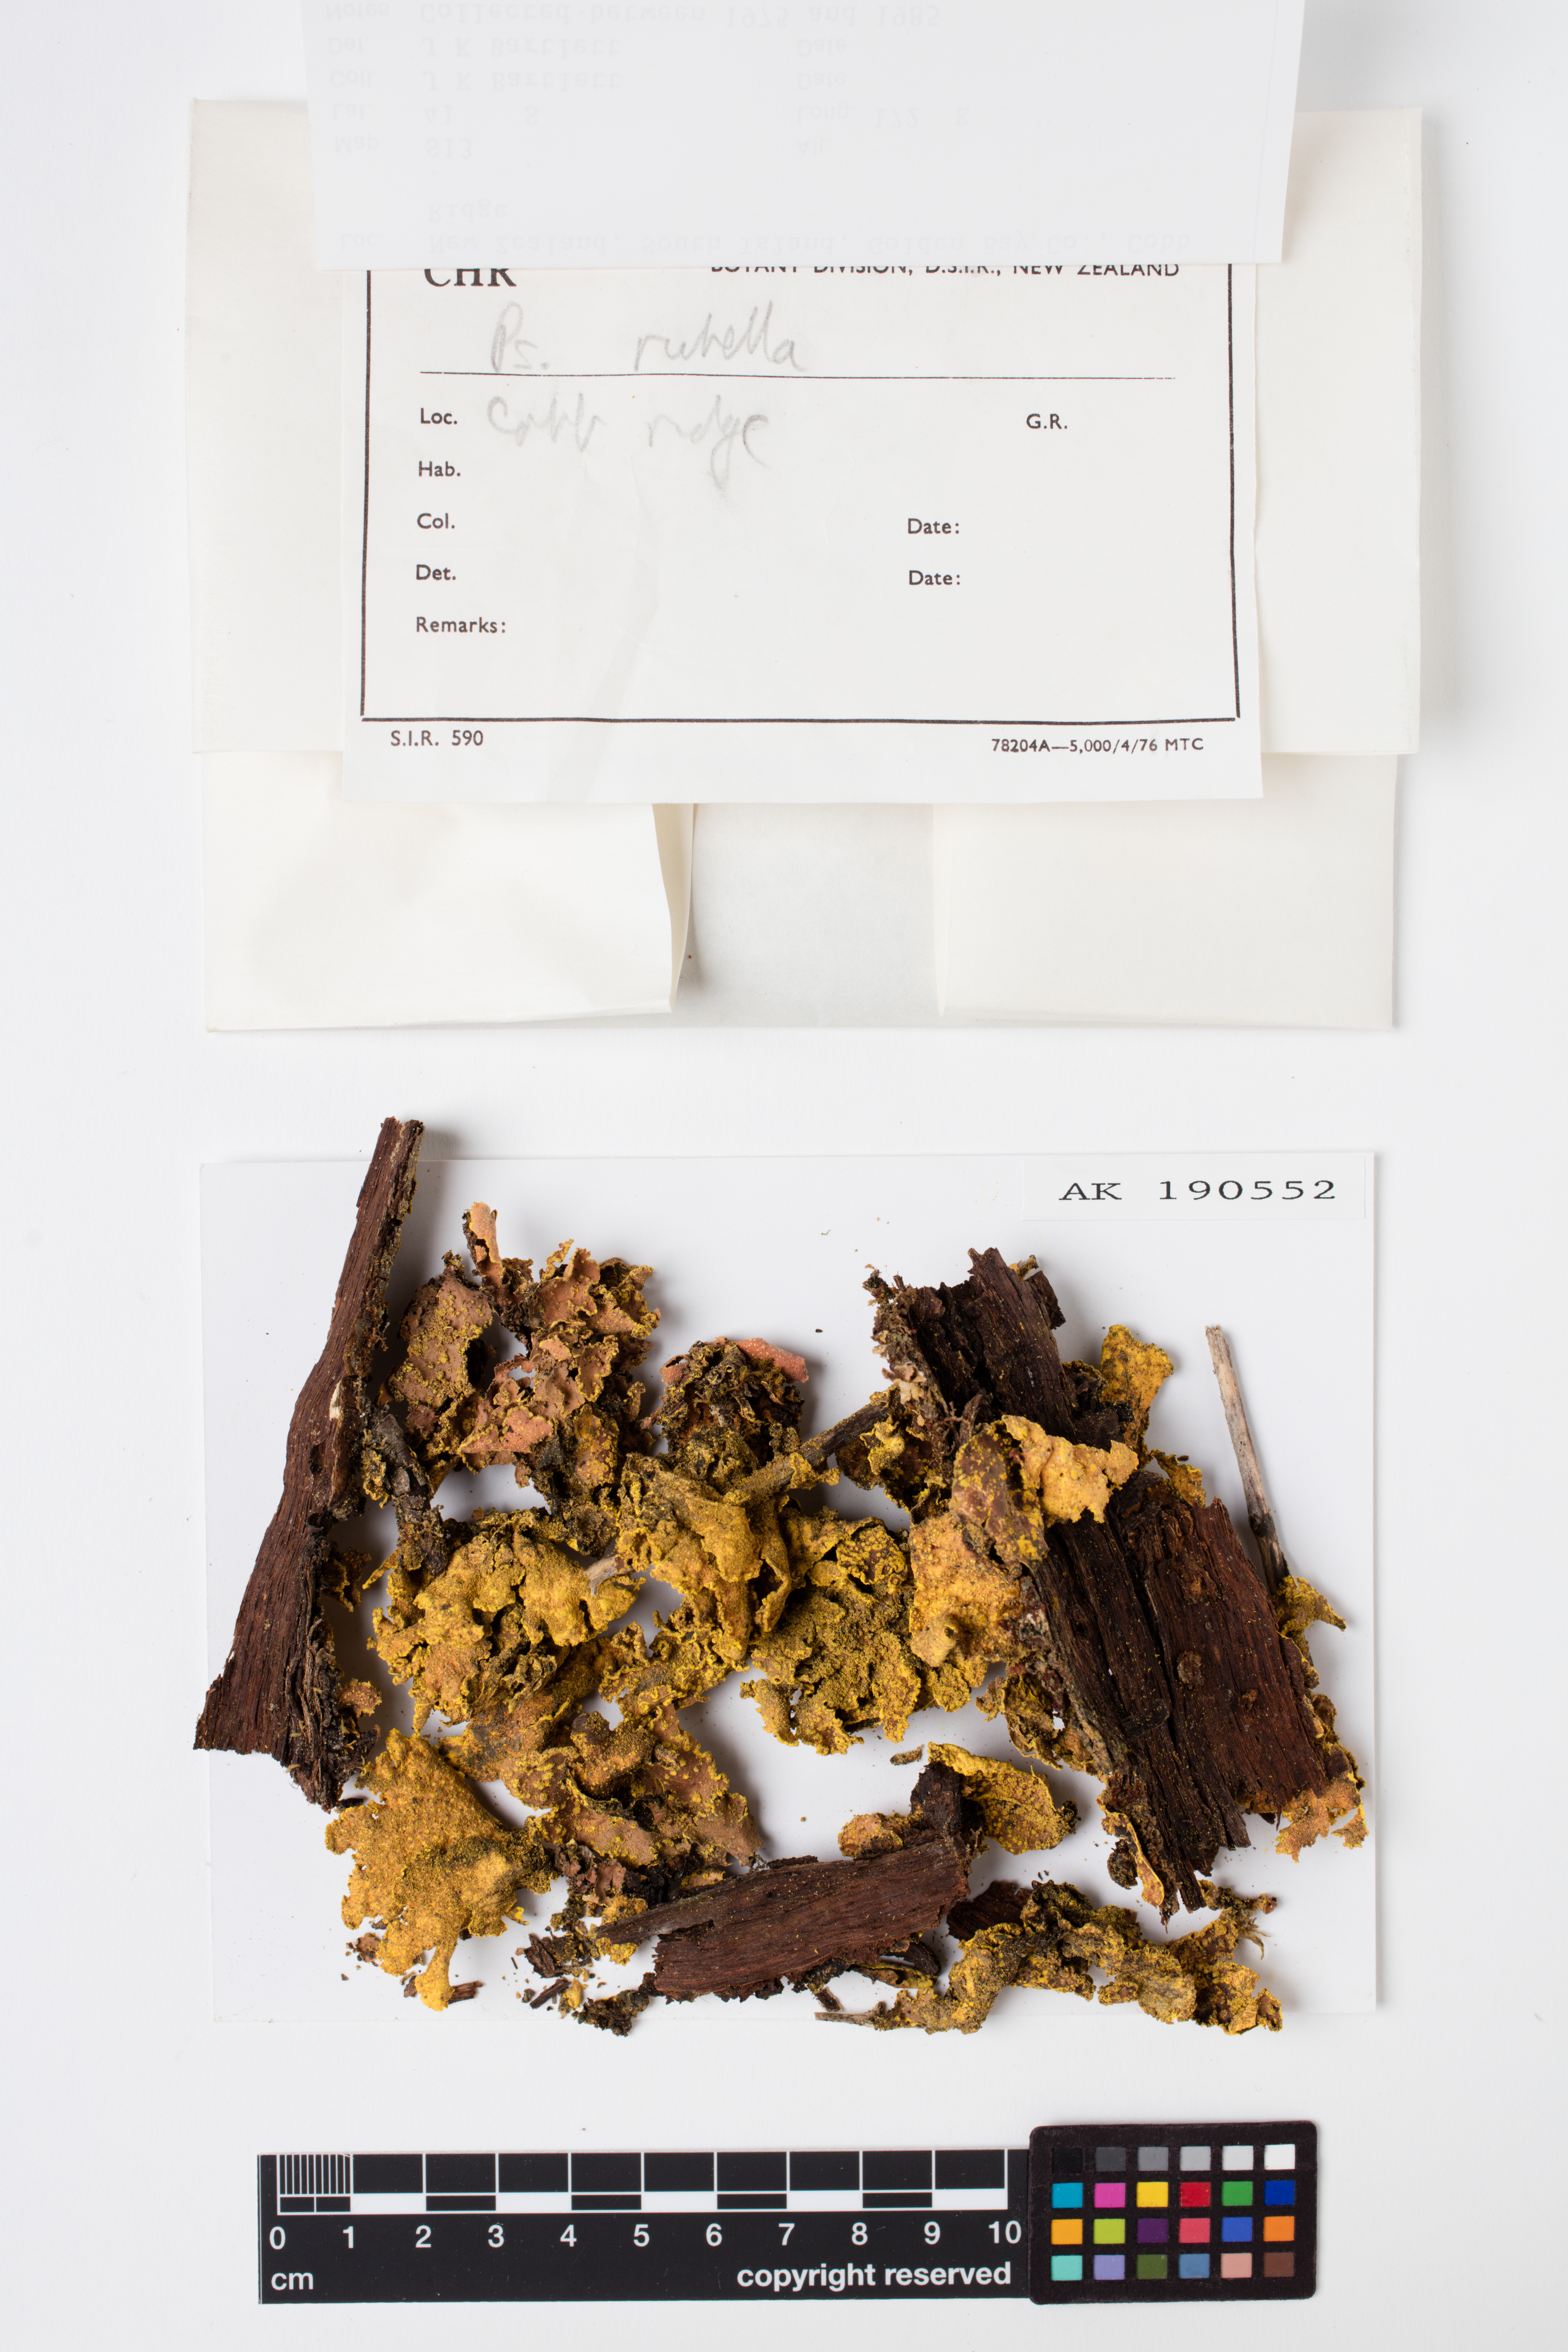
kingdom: Fungi
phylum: Ascomycota
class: Lecanoromycetes
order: Peltigerales
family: Lobariaceae
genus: Pseudocyphellaria
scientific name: Pseudocyphellaria rubella
